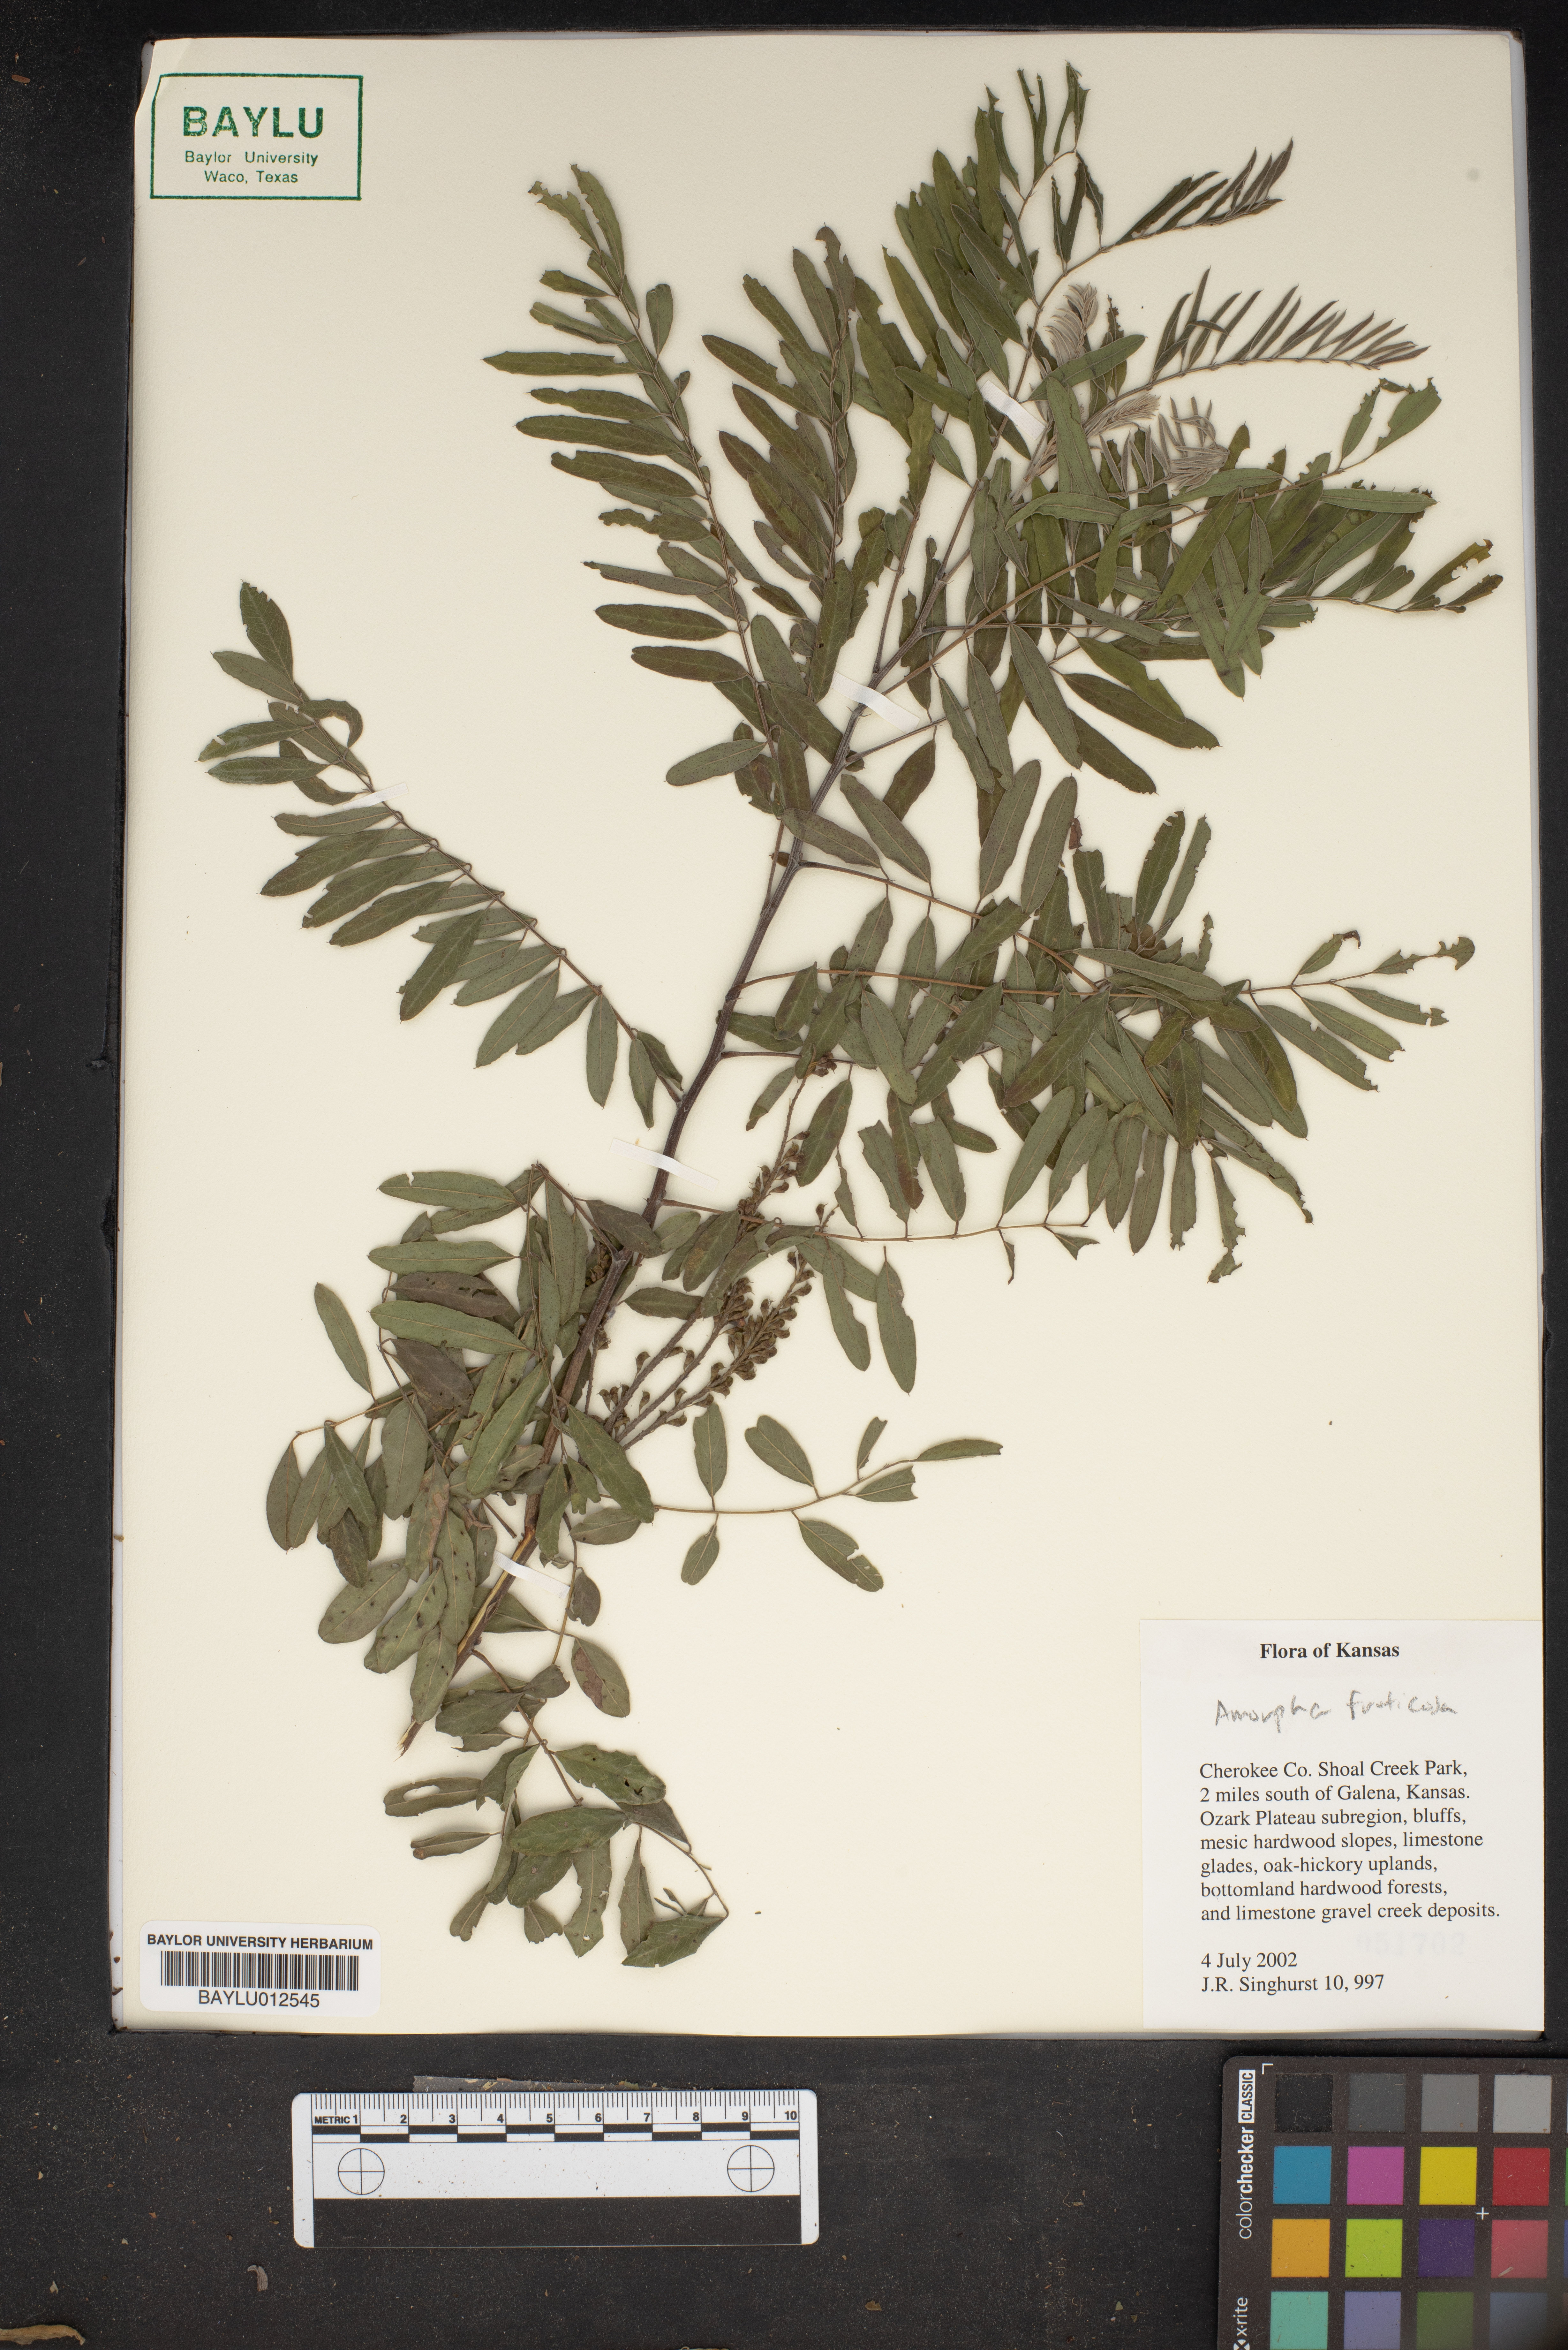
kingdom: Plantae
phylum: Tracheophyta
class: Magnoliopsida
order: Fabales
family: Fabaceae
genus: Amorpha
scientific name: Amorpha fruticosa
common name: False indigo
